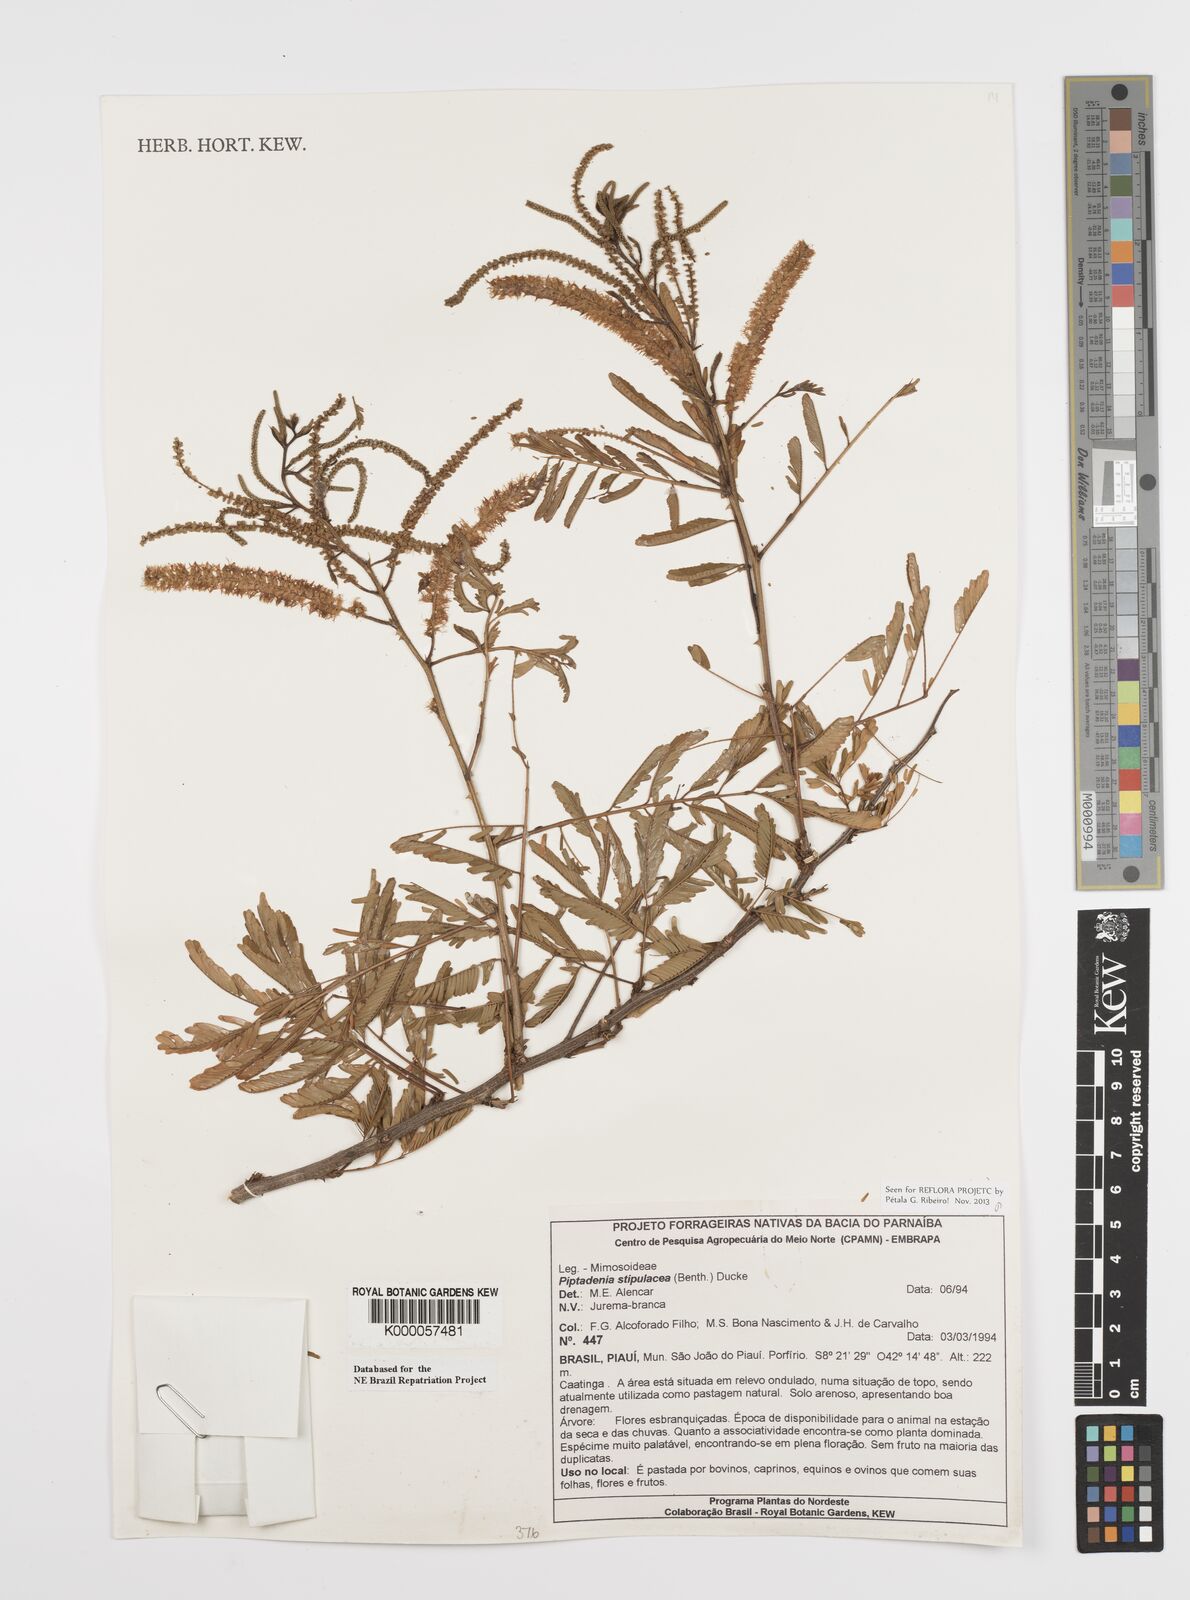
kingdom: Plantae
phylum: Tracheophyta
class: Magnoliopsida
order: Fabales
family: Fabaceae
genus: Piptadenia
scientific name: Piptadenia retusa
